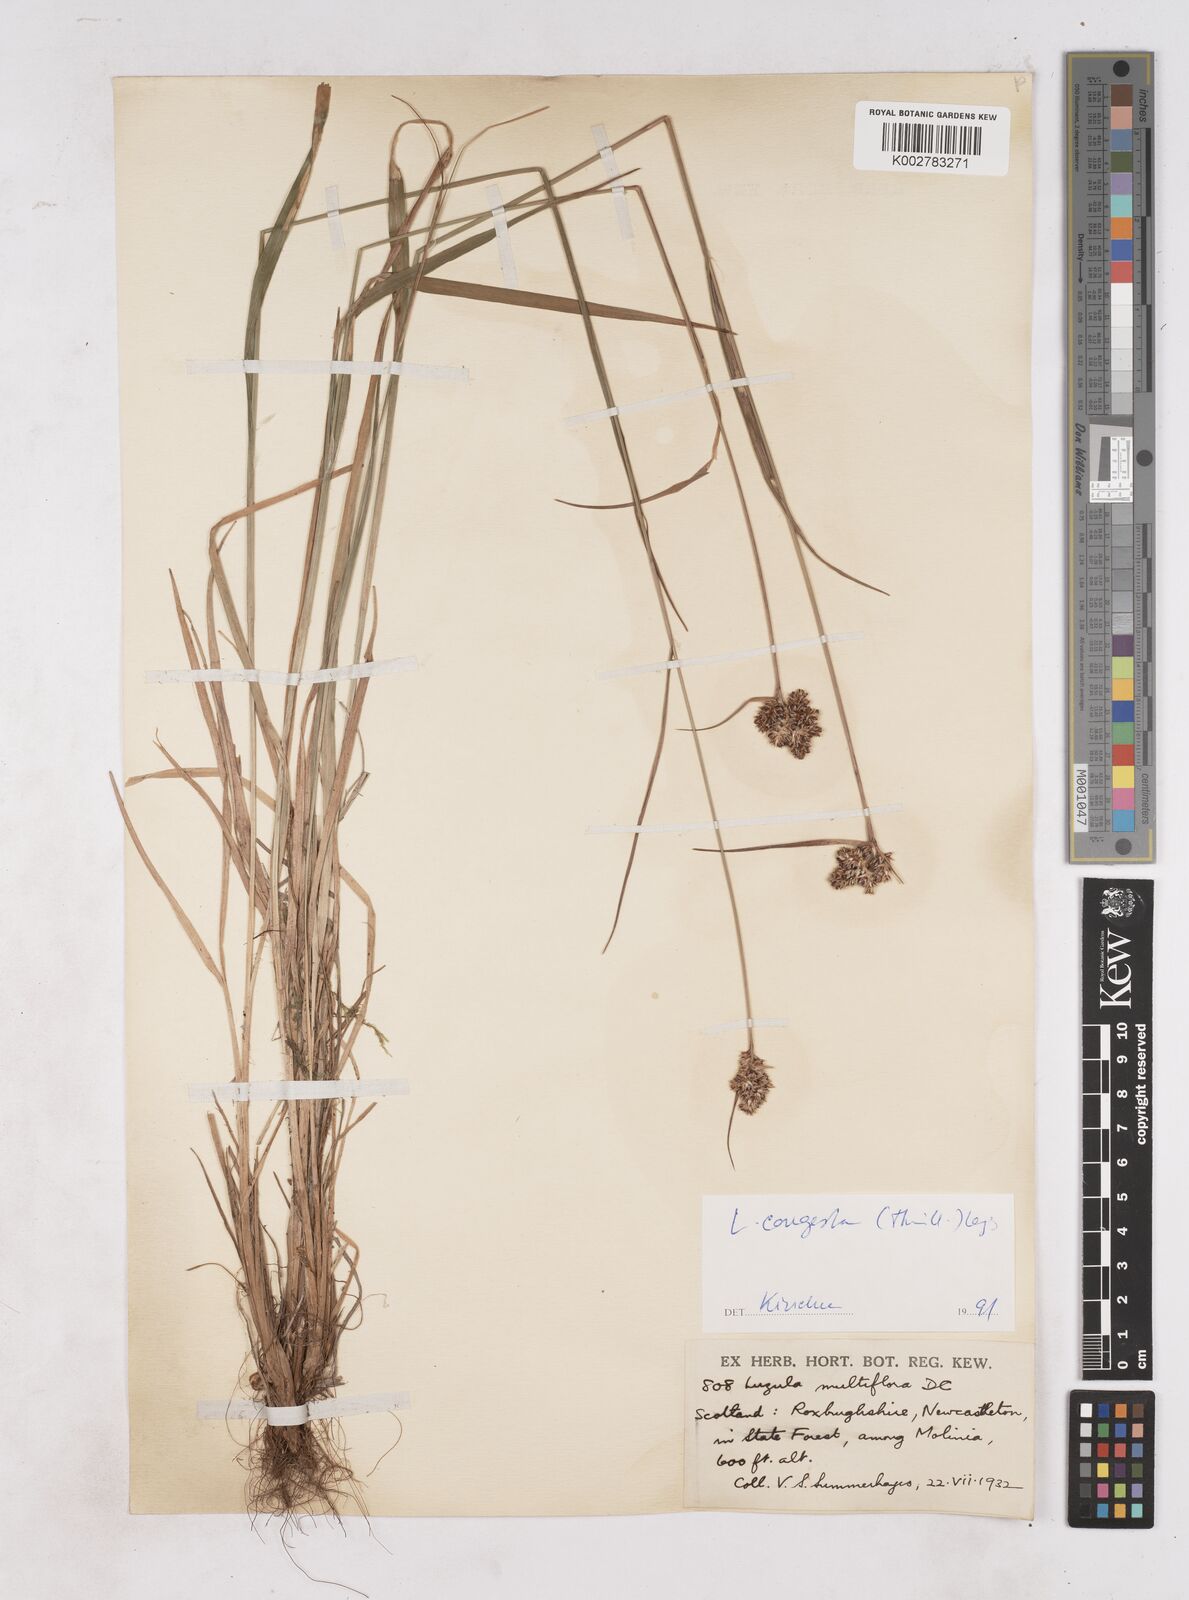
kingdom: Plantae
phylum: Tracheophyta
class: Liliopsida
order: Poales
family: Juncaceae
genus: Luzula
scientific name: Luzula multiflora
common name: Heath wood-rush
